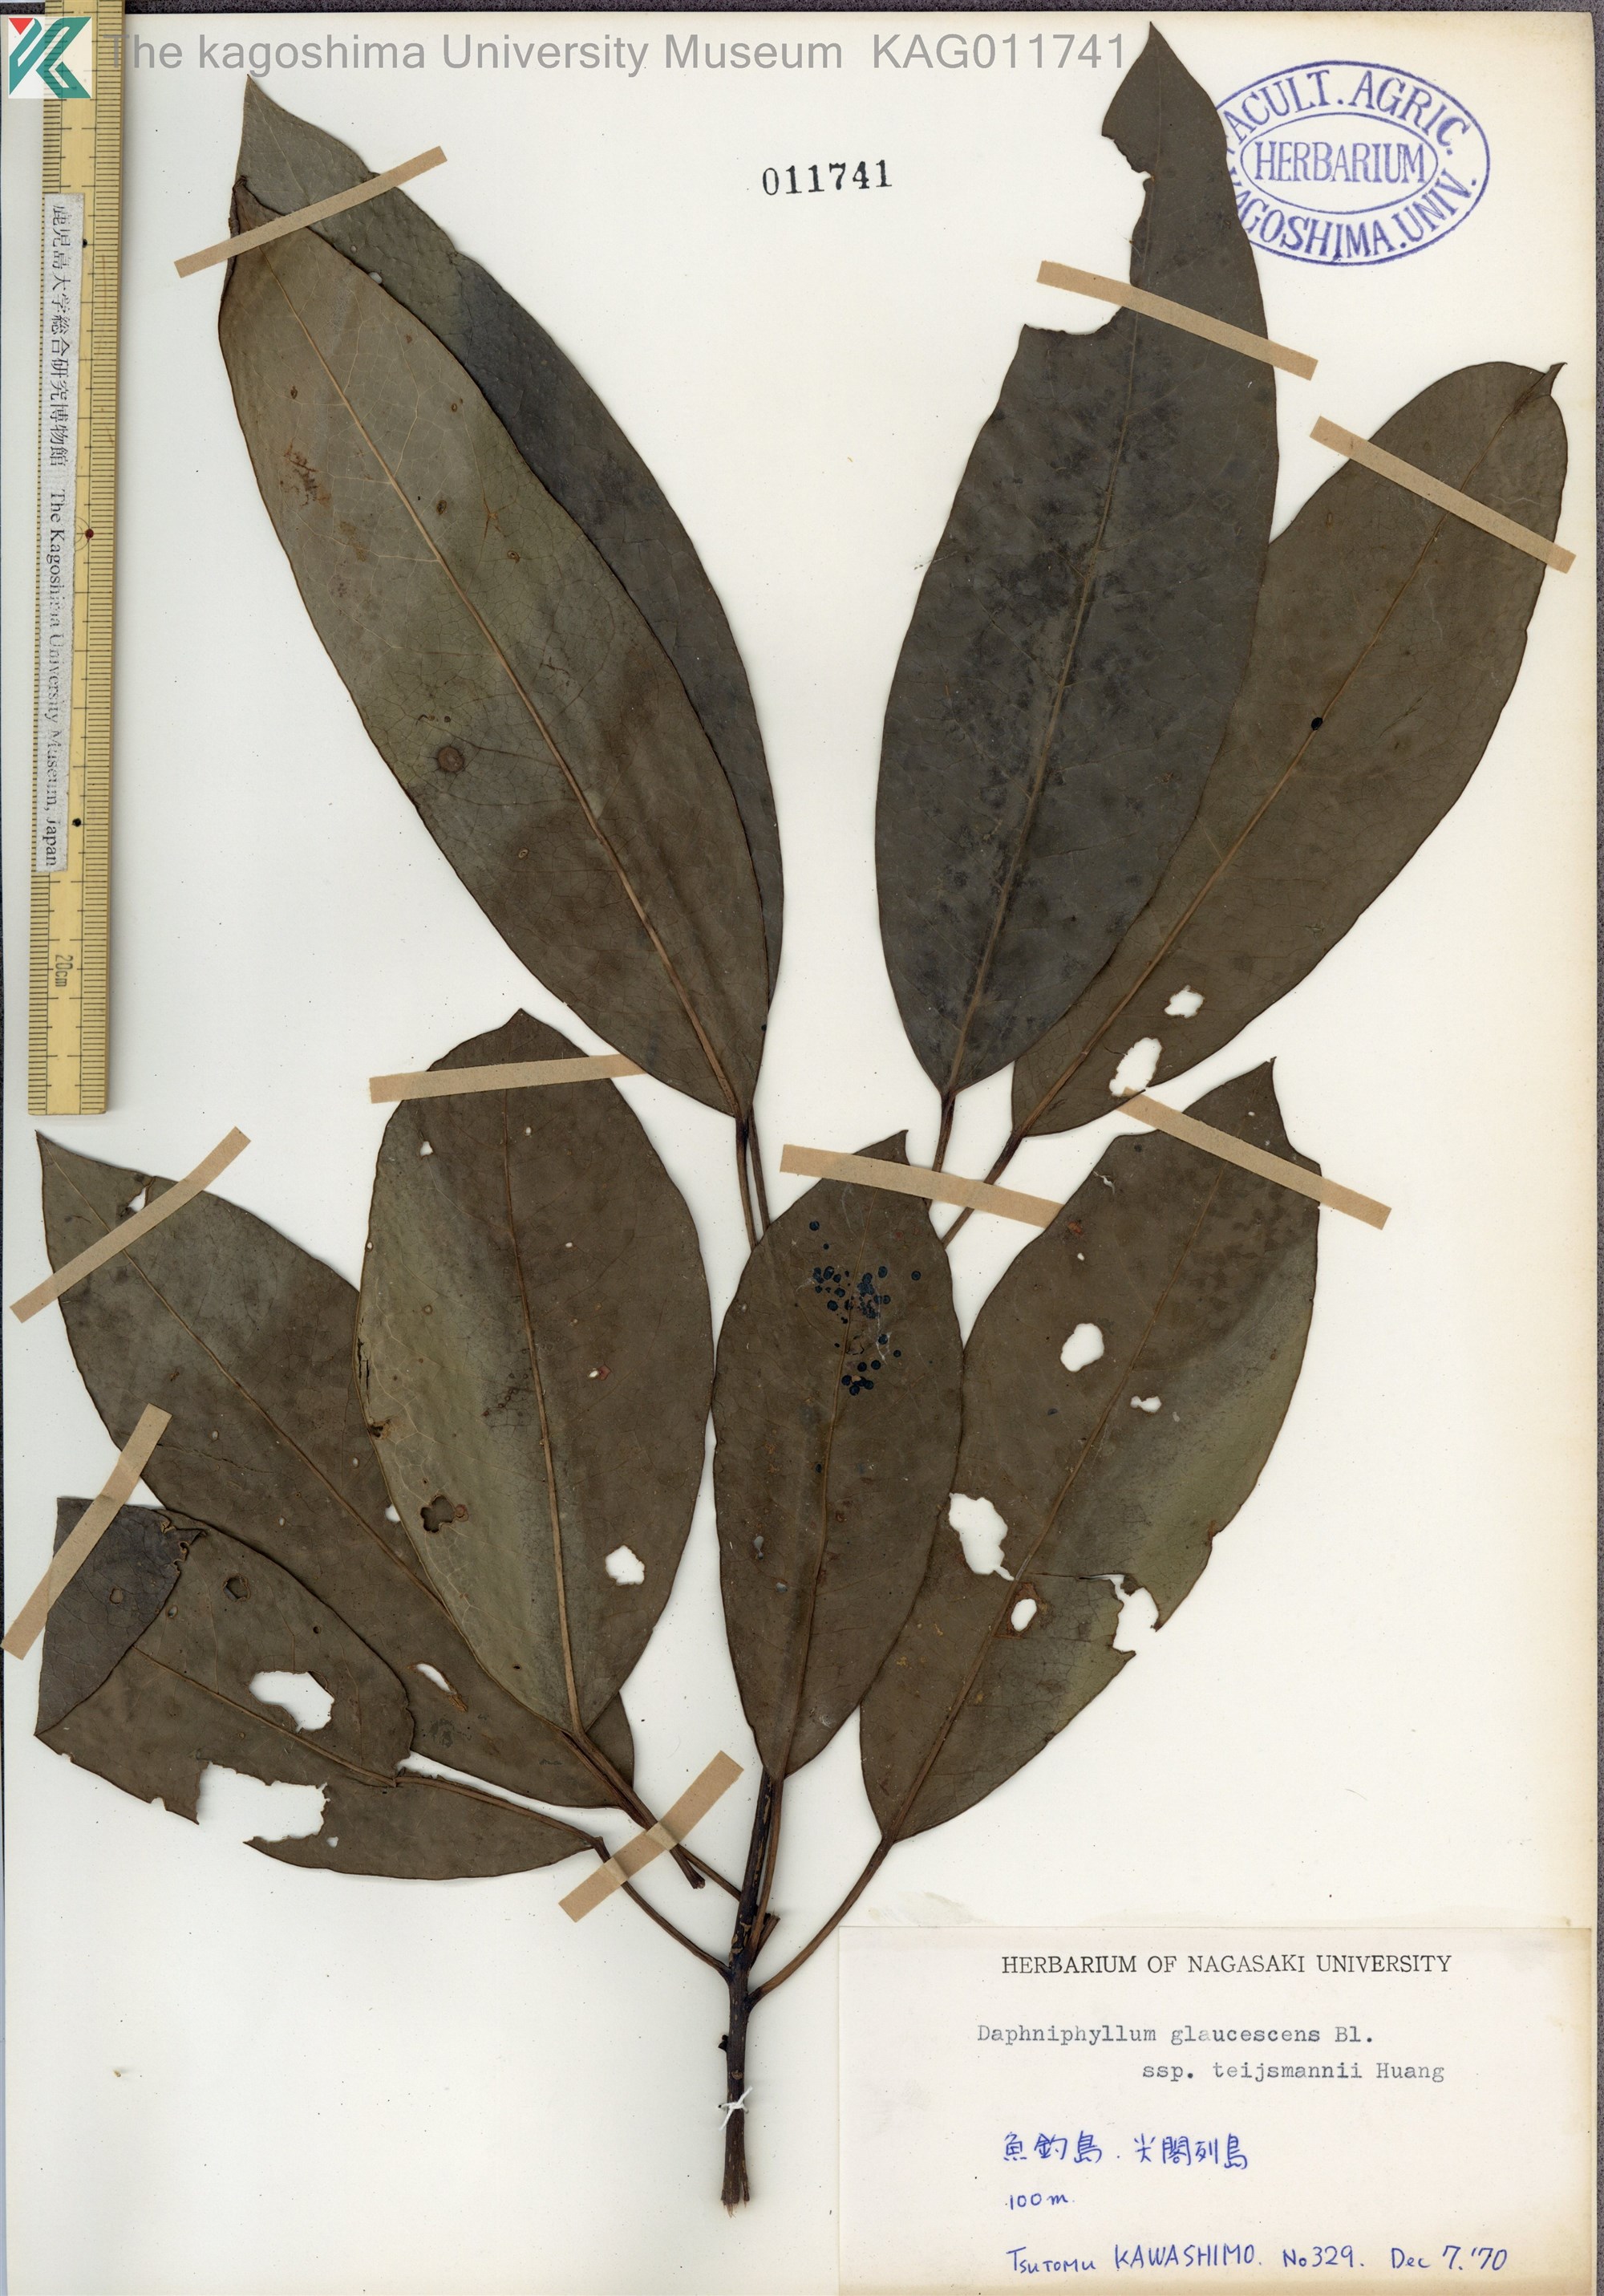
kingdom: Plantae
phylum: Tracheophyta
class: Magnoliopsida
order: Saxifragales
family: Daphniphyllaceae
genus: Daphniphyllum
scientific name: Daphniphyllum teijsmannii
